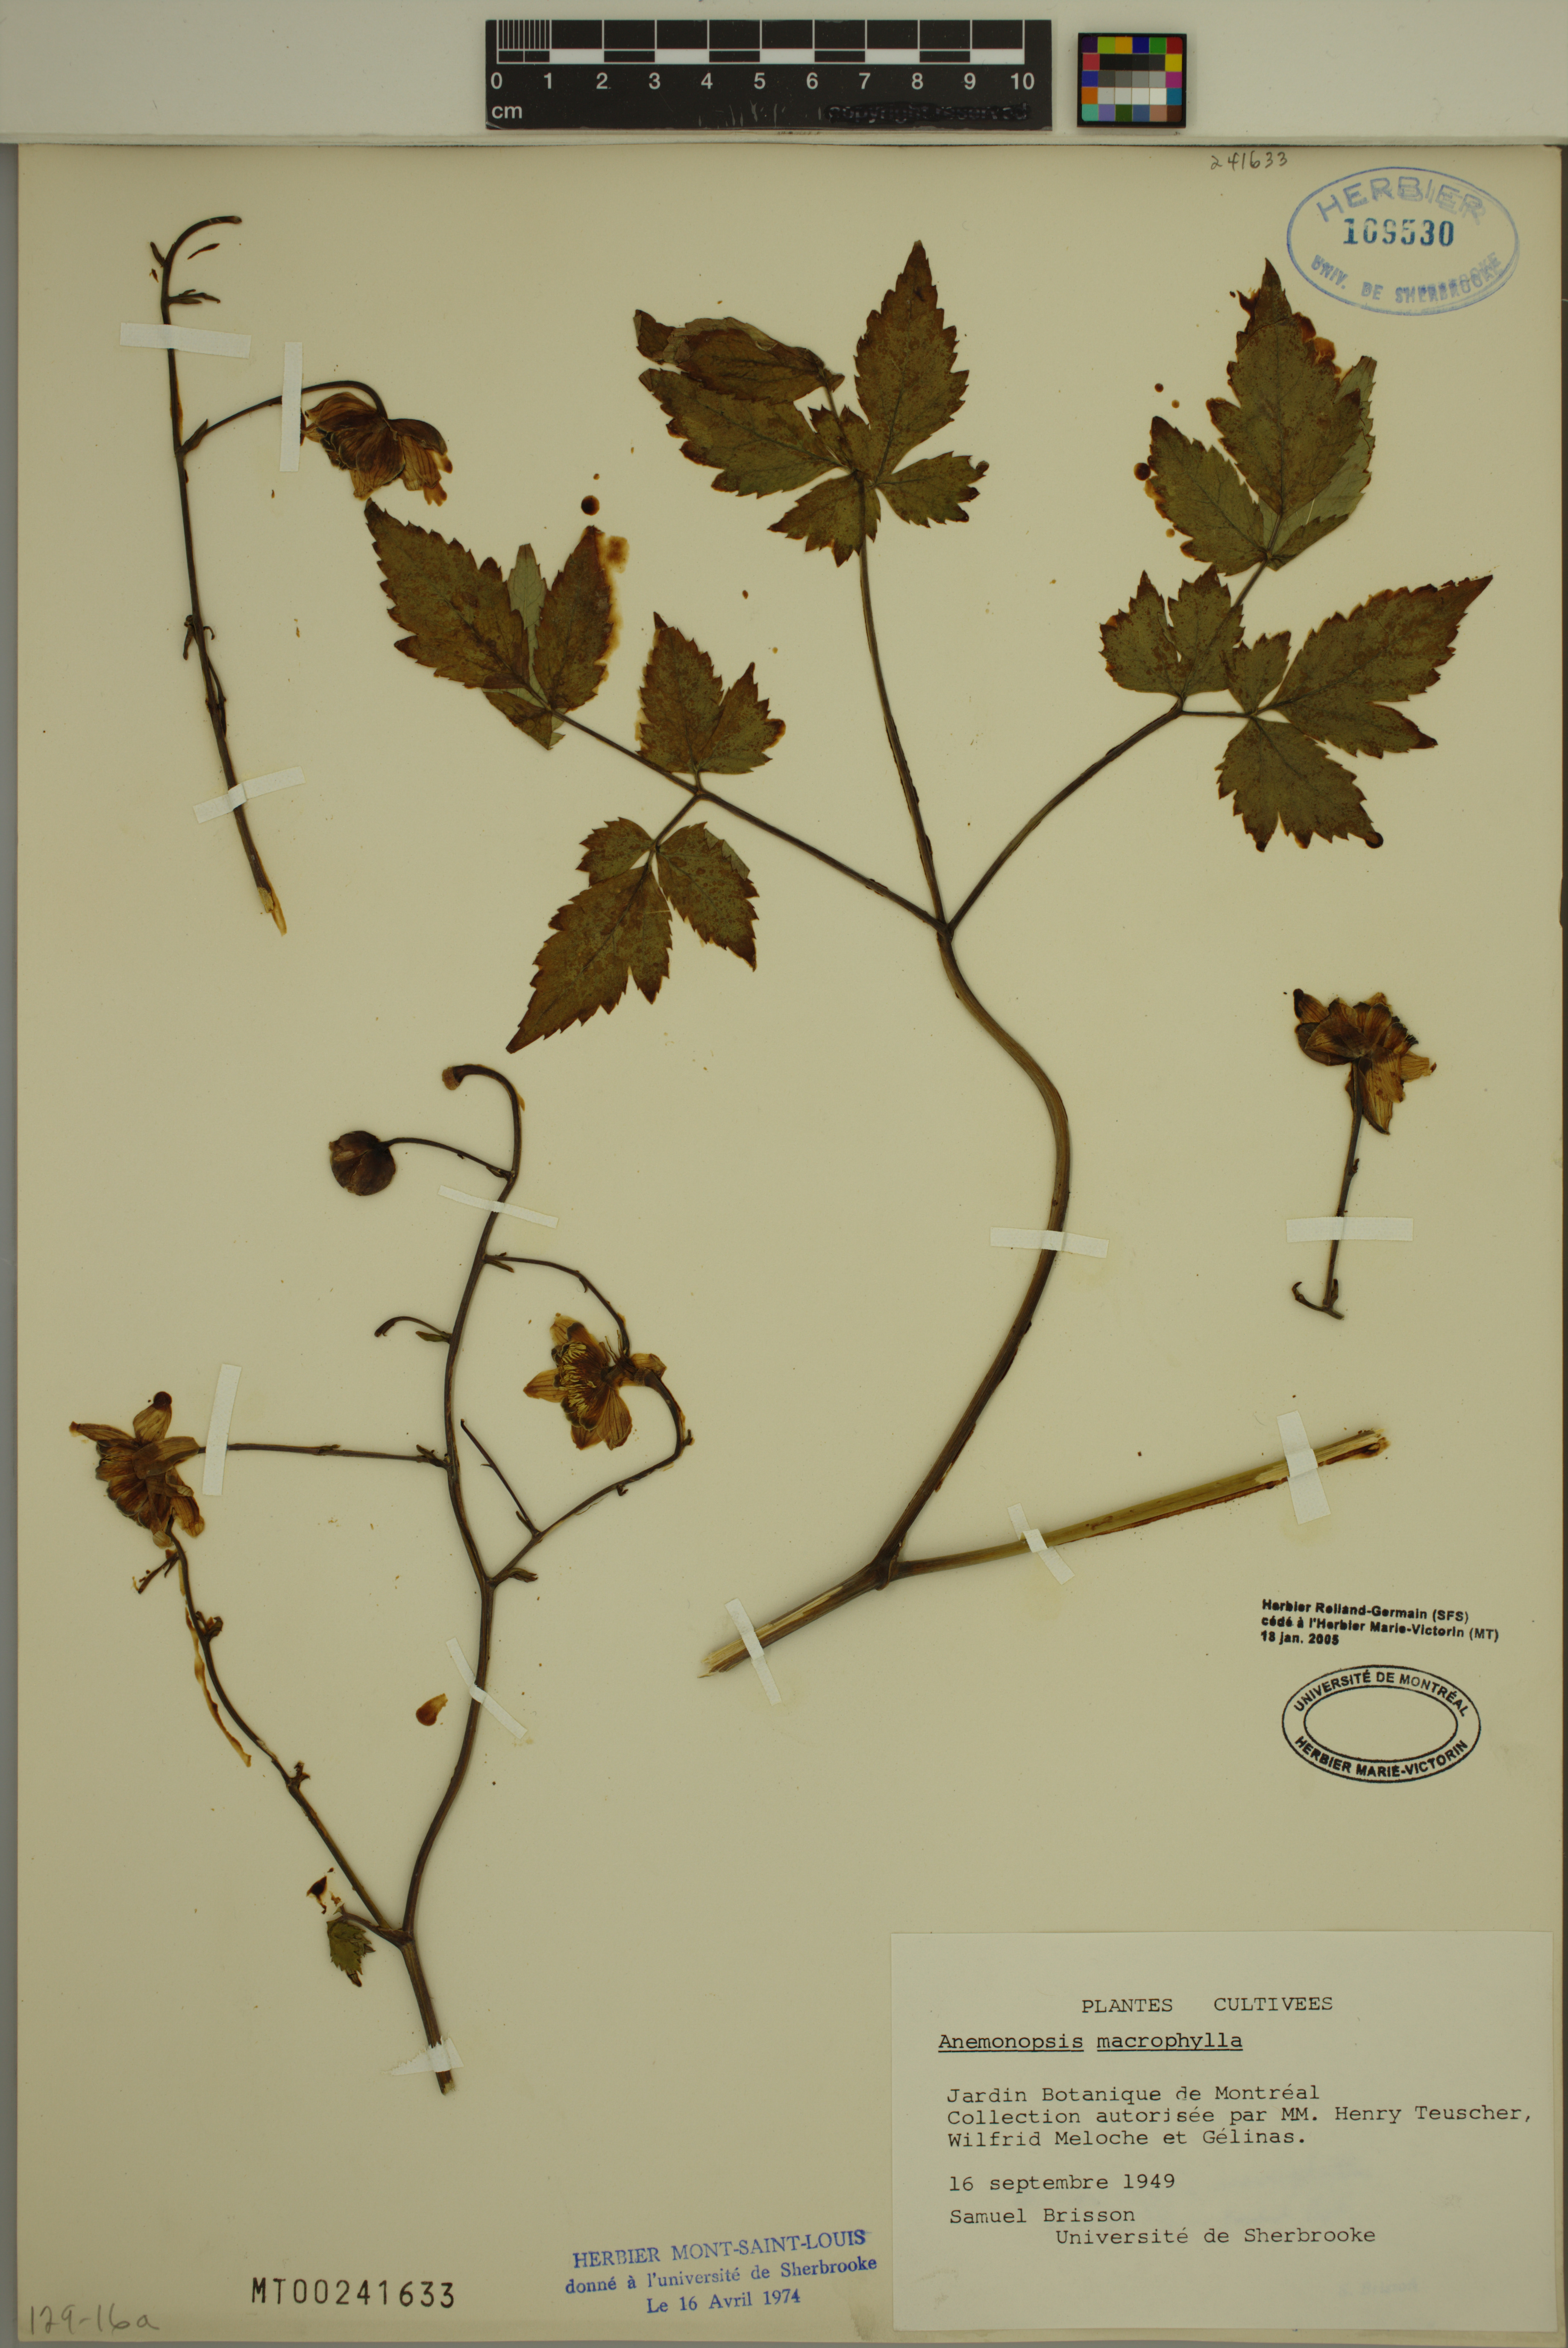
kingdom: Plantae
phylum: Tracheophyta
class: Magnoliopsida
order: Ranunculales
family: Ranunculaceae
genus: Anemonopsis
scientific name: Anemonopsis macrophylla
